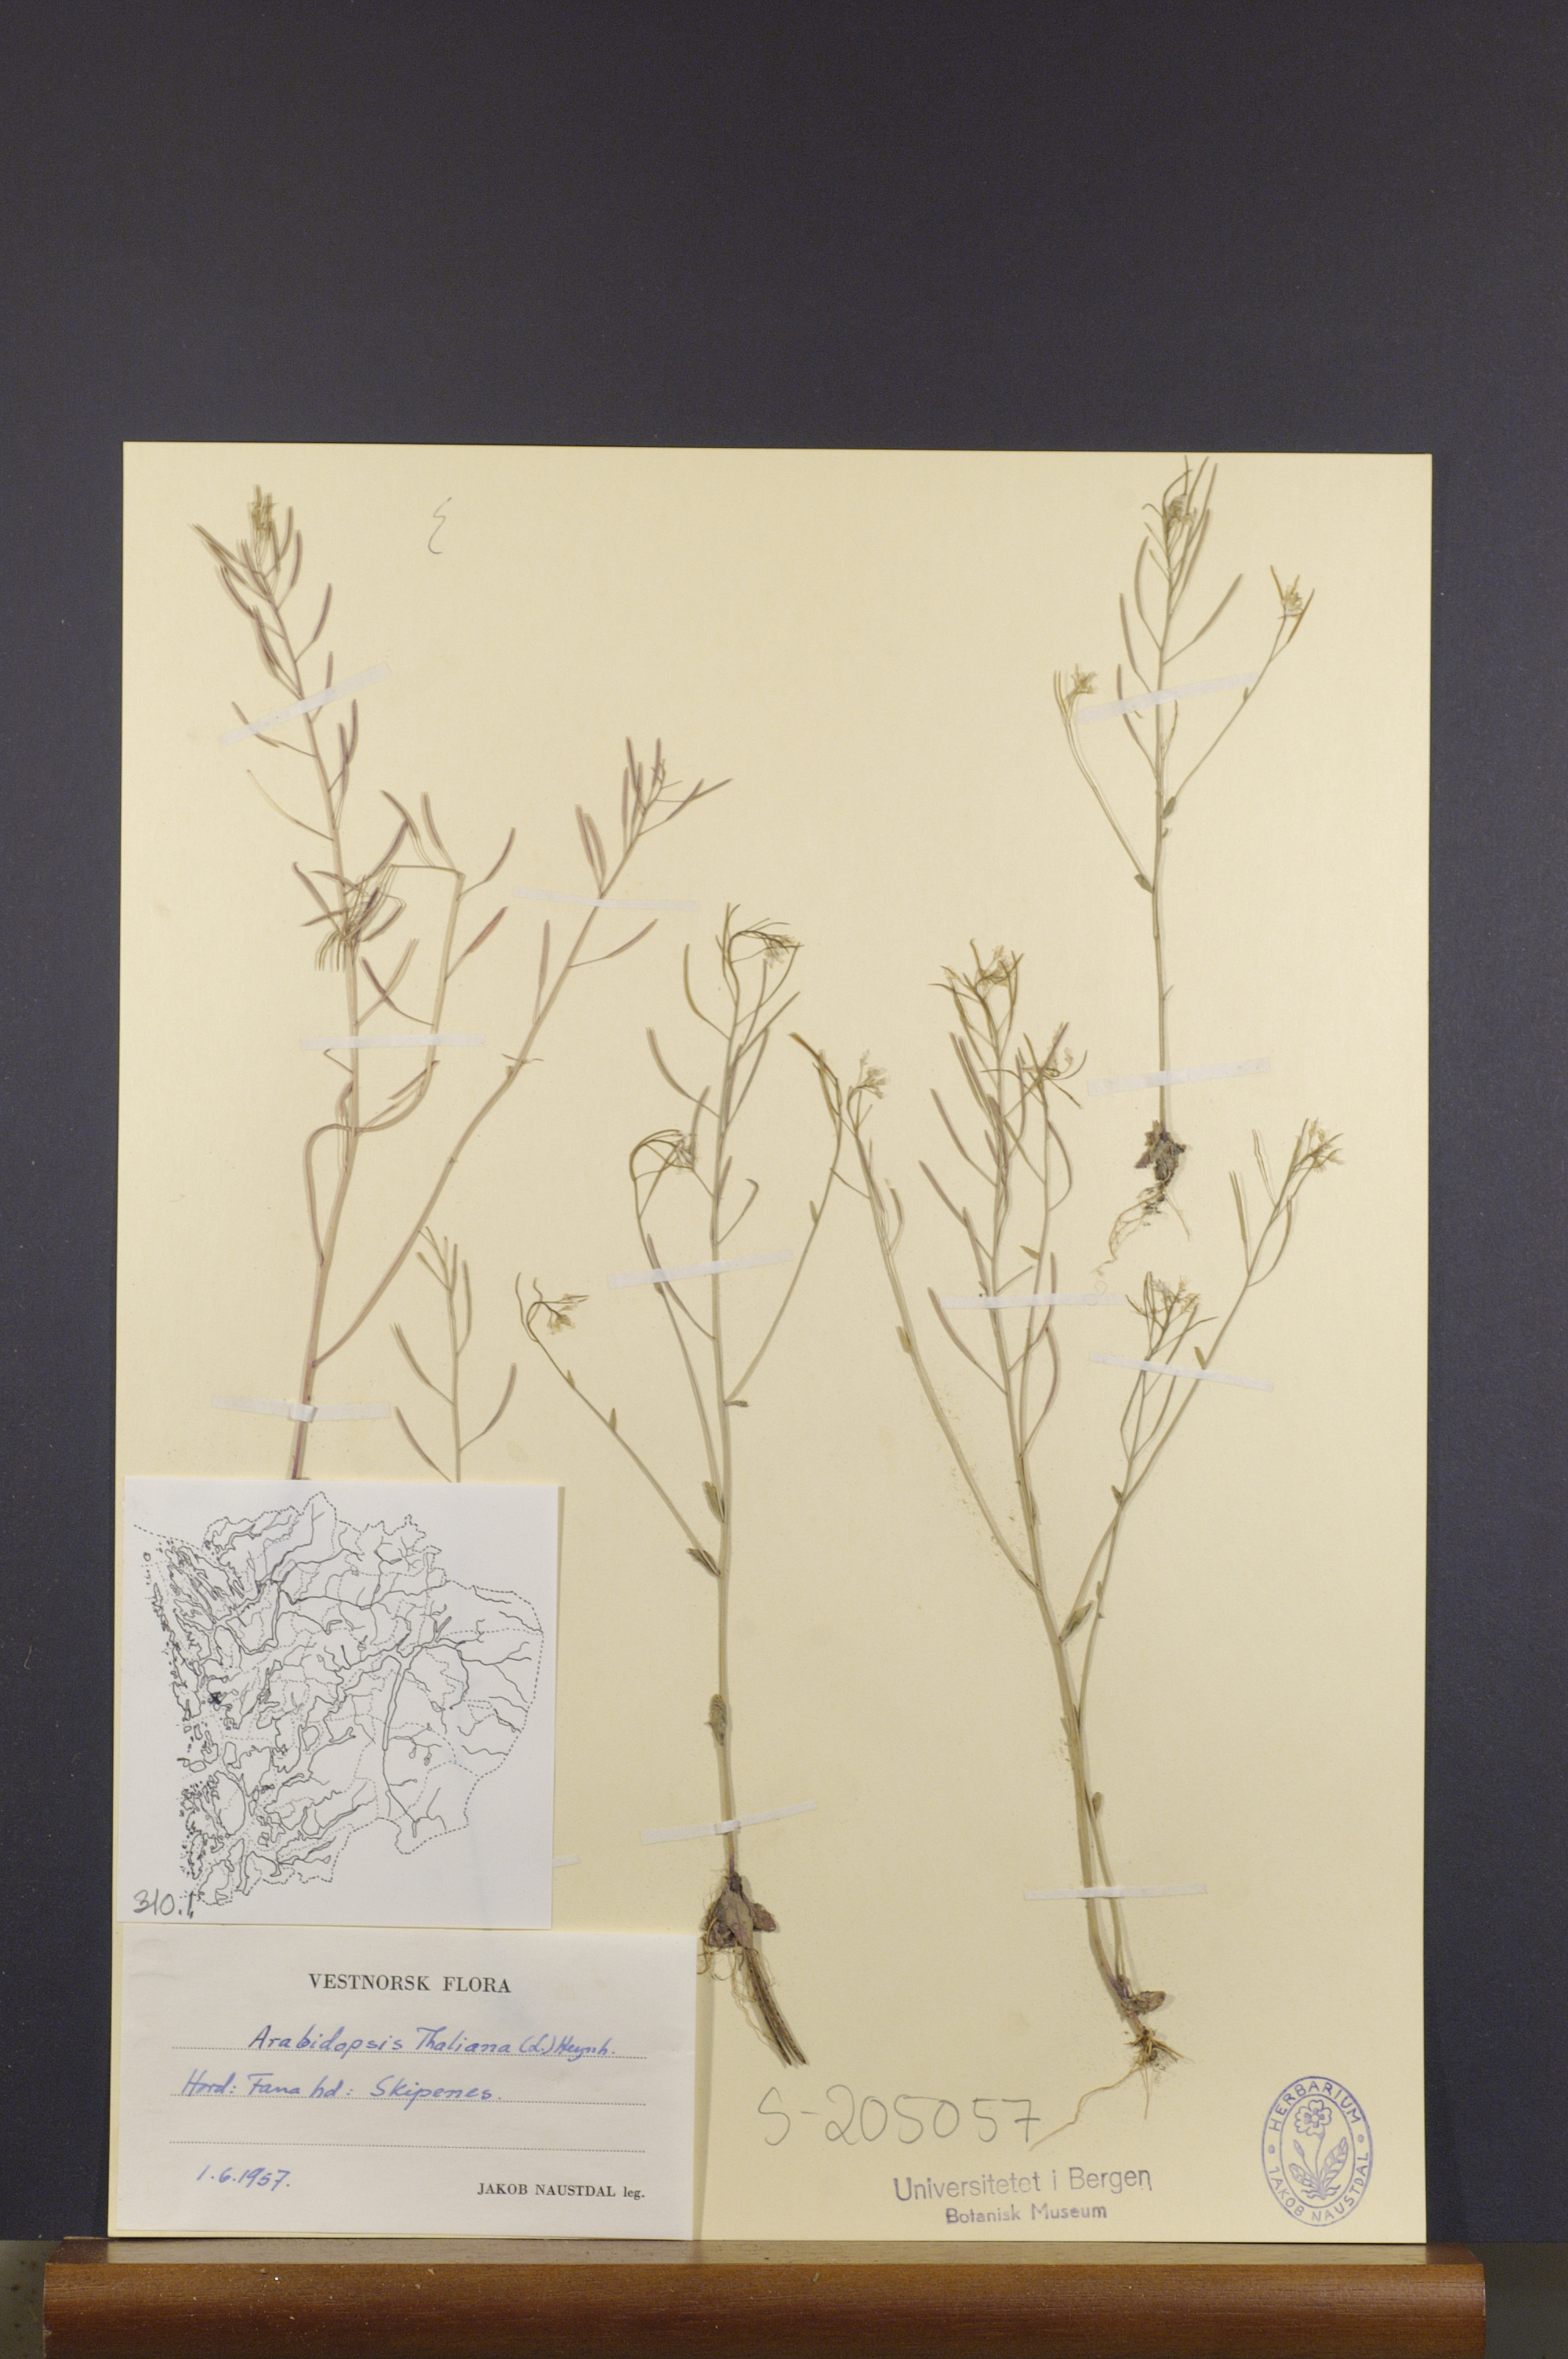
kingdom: Plantae
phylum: Tracheophyta
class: Magnoliopsida
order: Brassicales
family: Brassicaceae
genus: Arabidopsis
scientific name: Arabidopsis thaliana
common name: Thale cress
